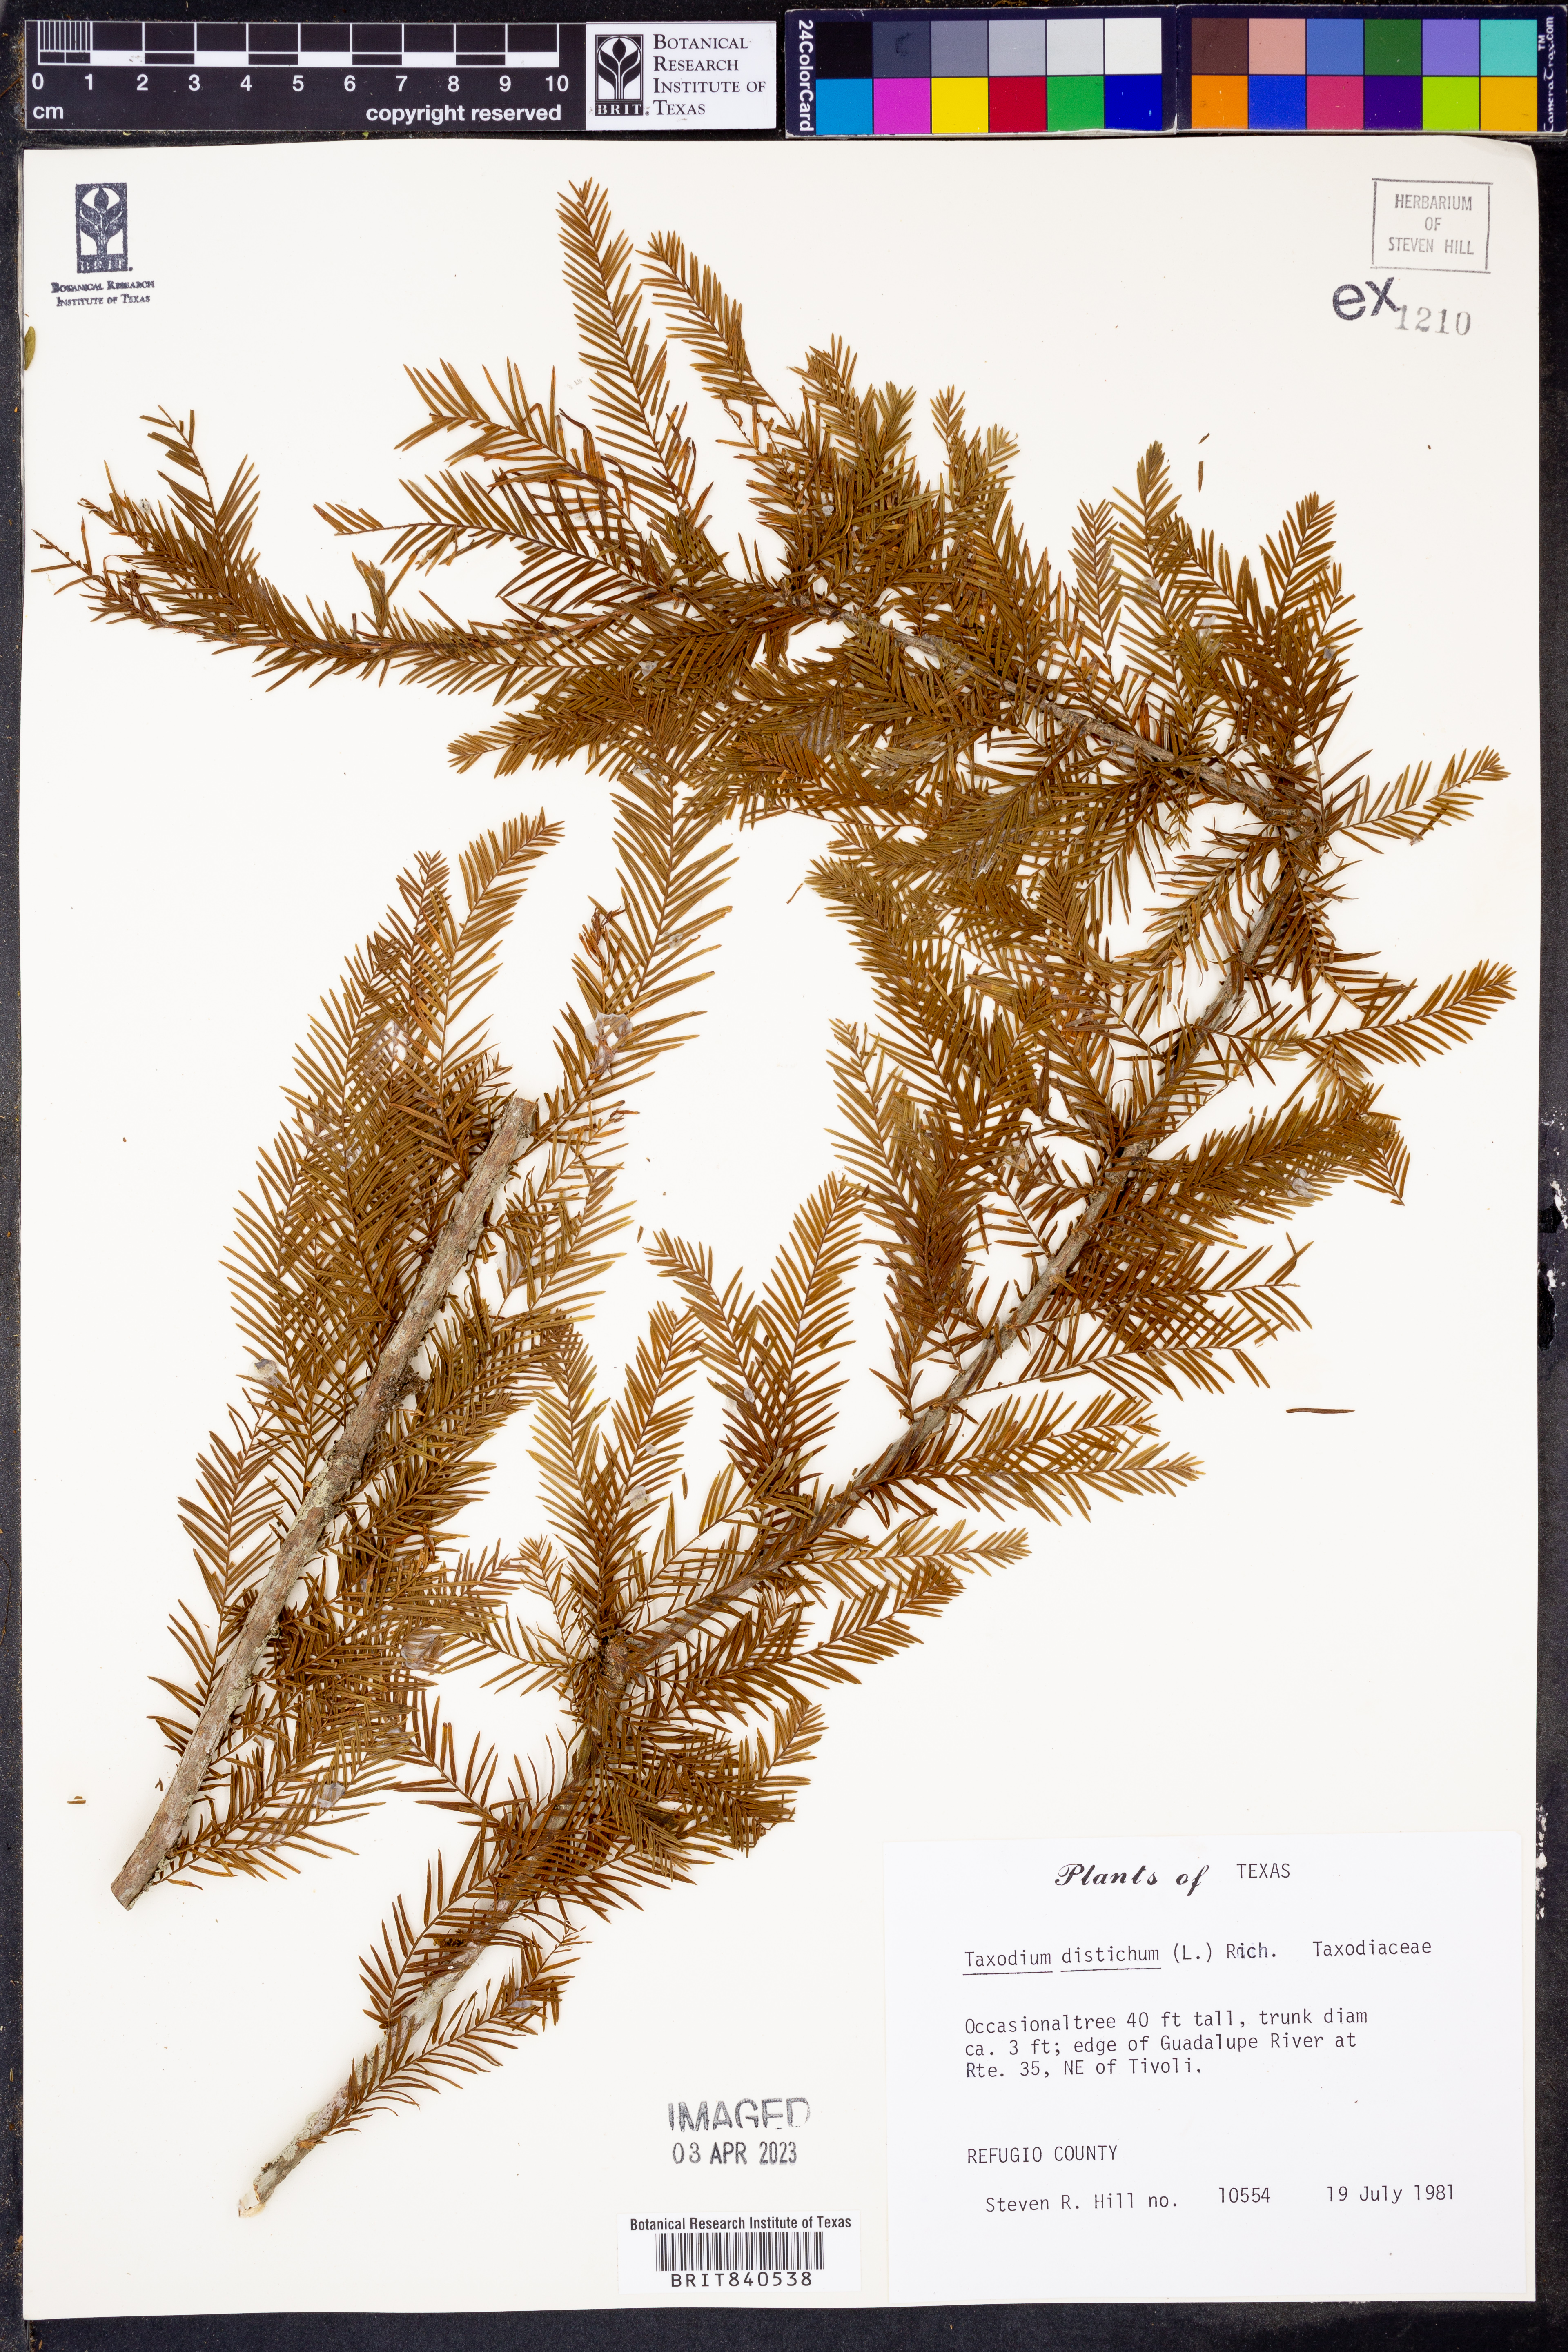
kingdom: Plantae
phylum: Tracheophyta
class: Pinopsida
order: Pinales
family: Cupressaceae
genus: Taxodium
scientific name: Taxodium distichum
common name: Bald cypress
